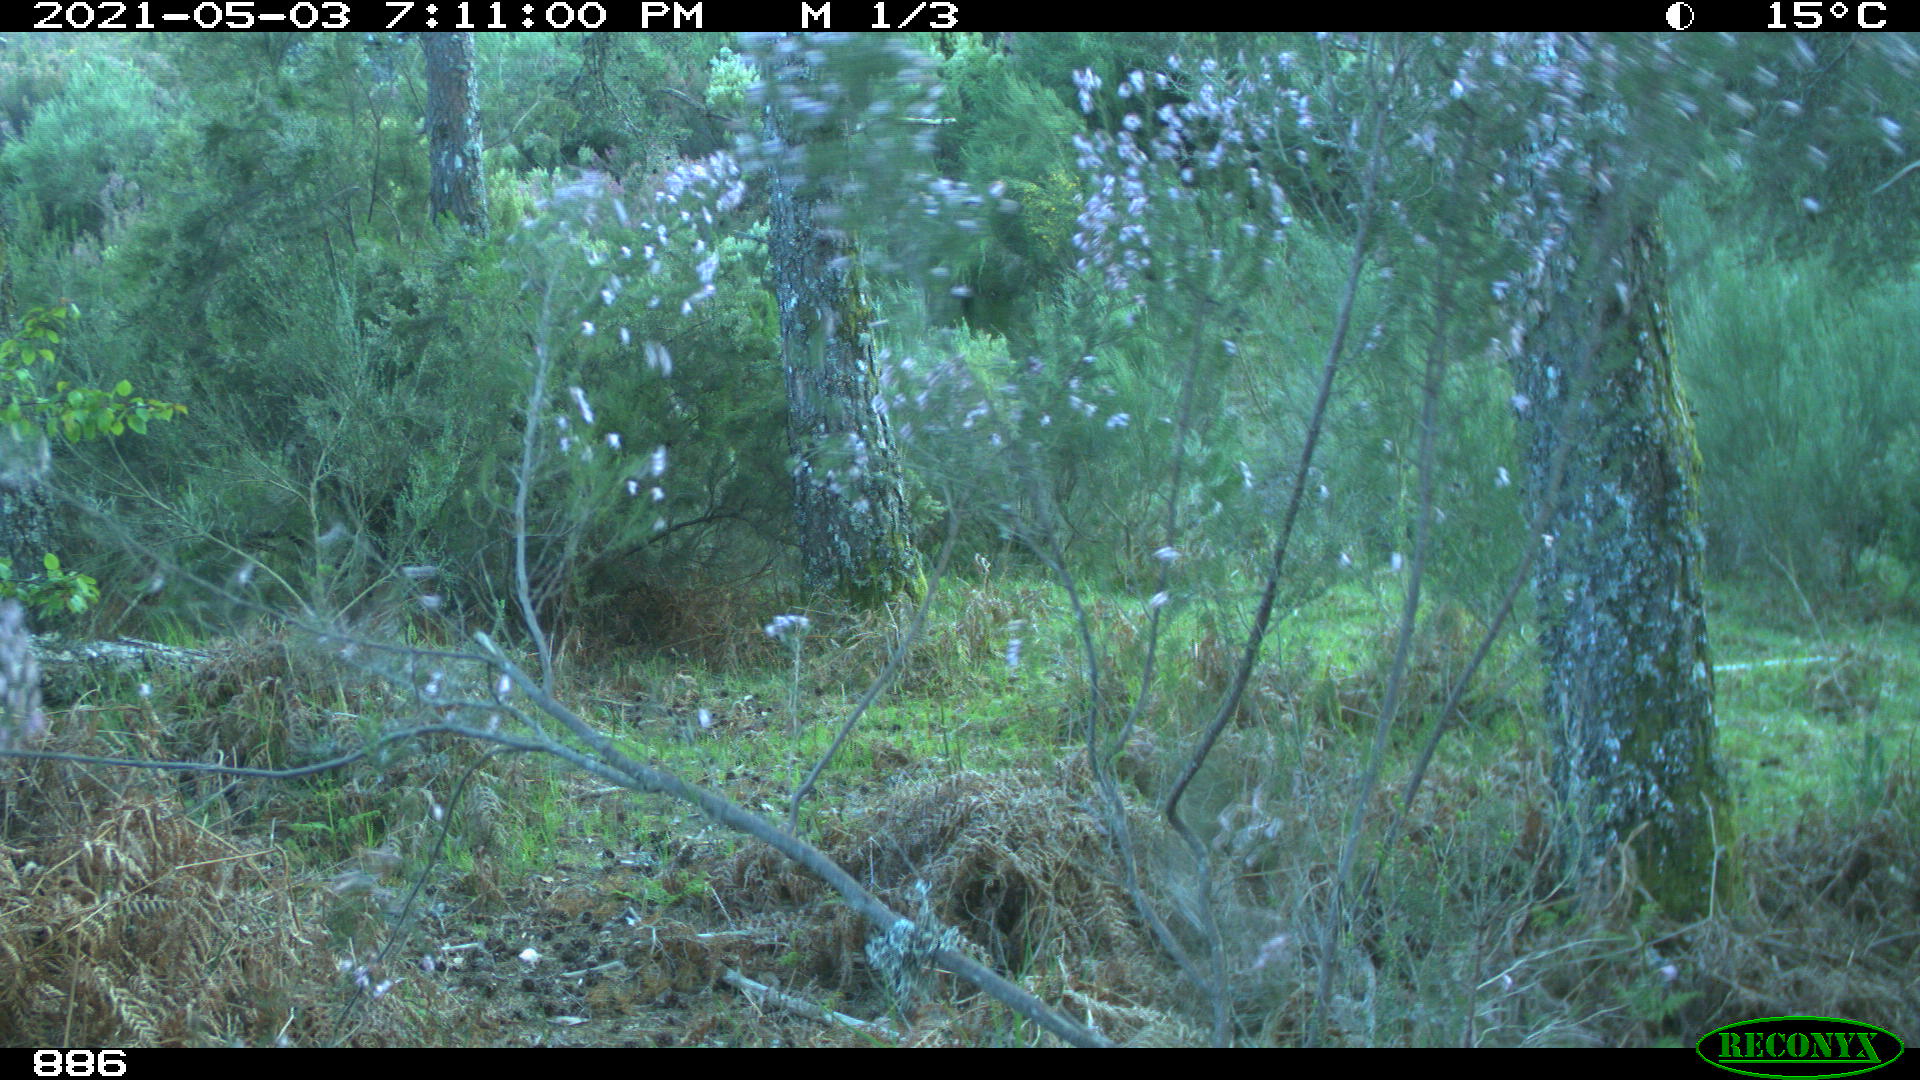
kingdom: Animalia
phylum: Chordata
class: Mammalia
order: Artiodactyla
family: Cervidae
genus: Capreolus
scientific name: Capreolus capreolus
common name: Western roe deer
